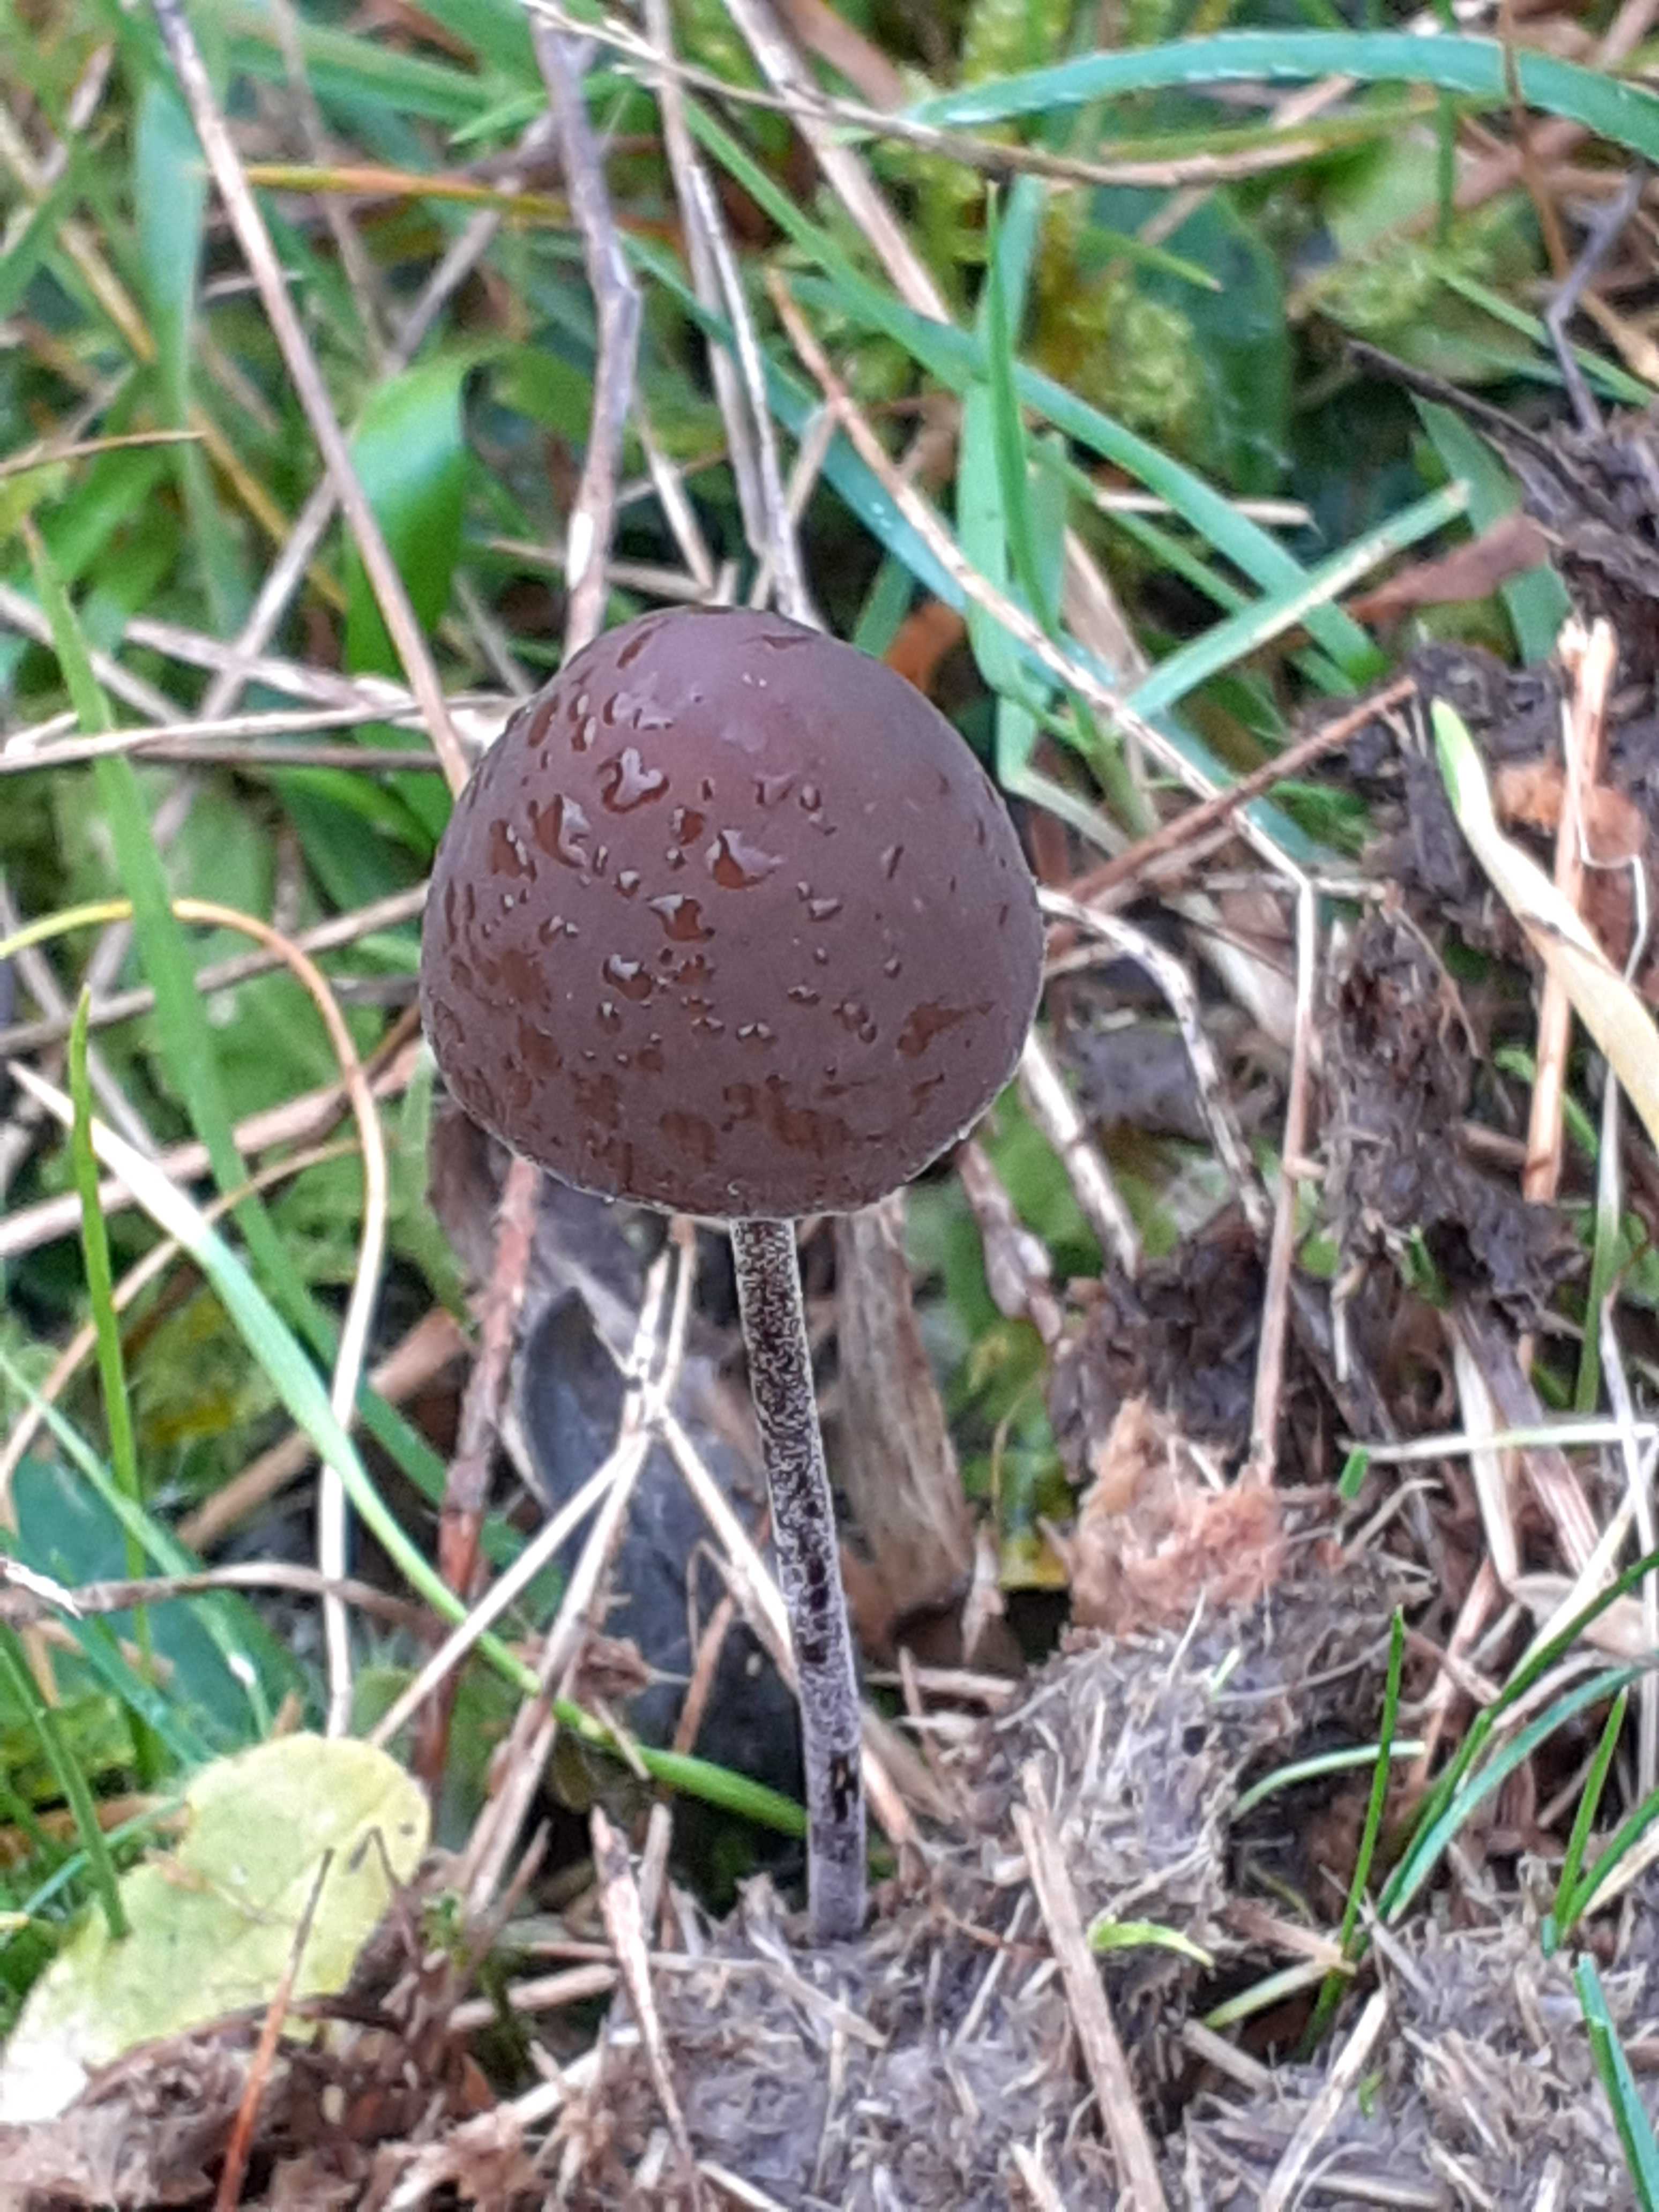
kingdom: Fungi
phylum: Basidiomycota
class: Agaricomycetes
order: Agaricales
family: Bolbitiaceae
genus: Panaeolus
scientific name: Panaeolus acuminatus
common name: høj glanshat
